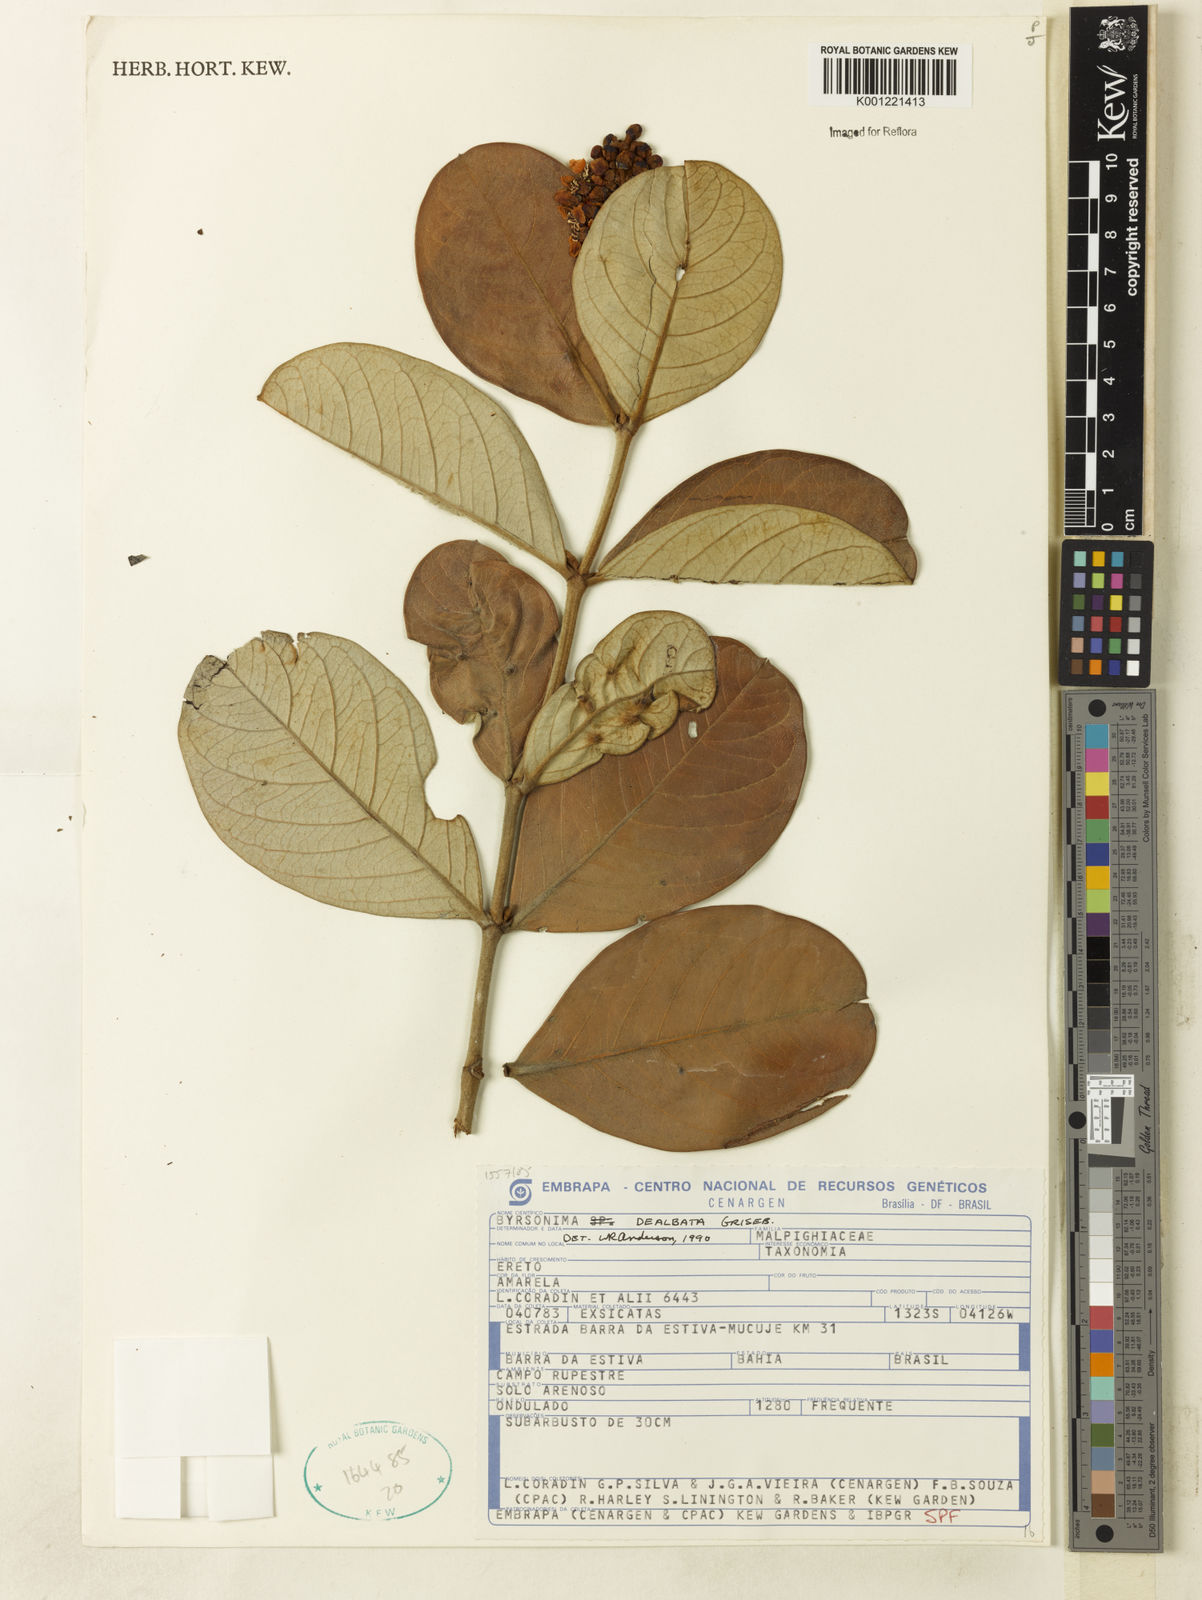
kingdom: Plantae
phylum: Tracheophyta
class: Magnoliopsida
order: Malpighiales
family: Malpighiaceae
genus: Byrsonima
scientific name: Byrsonima dealbata
